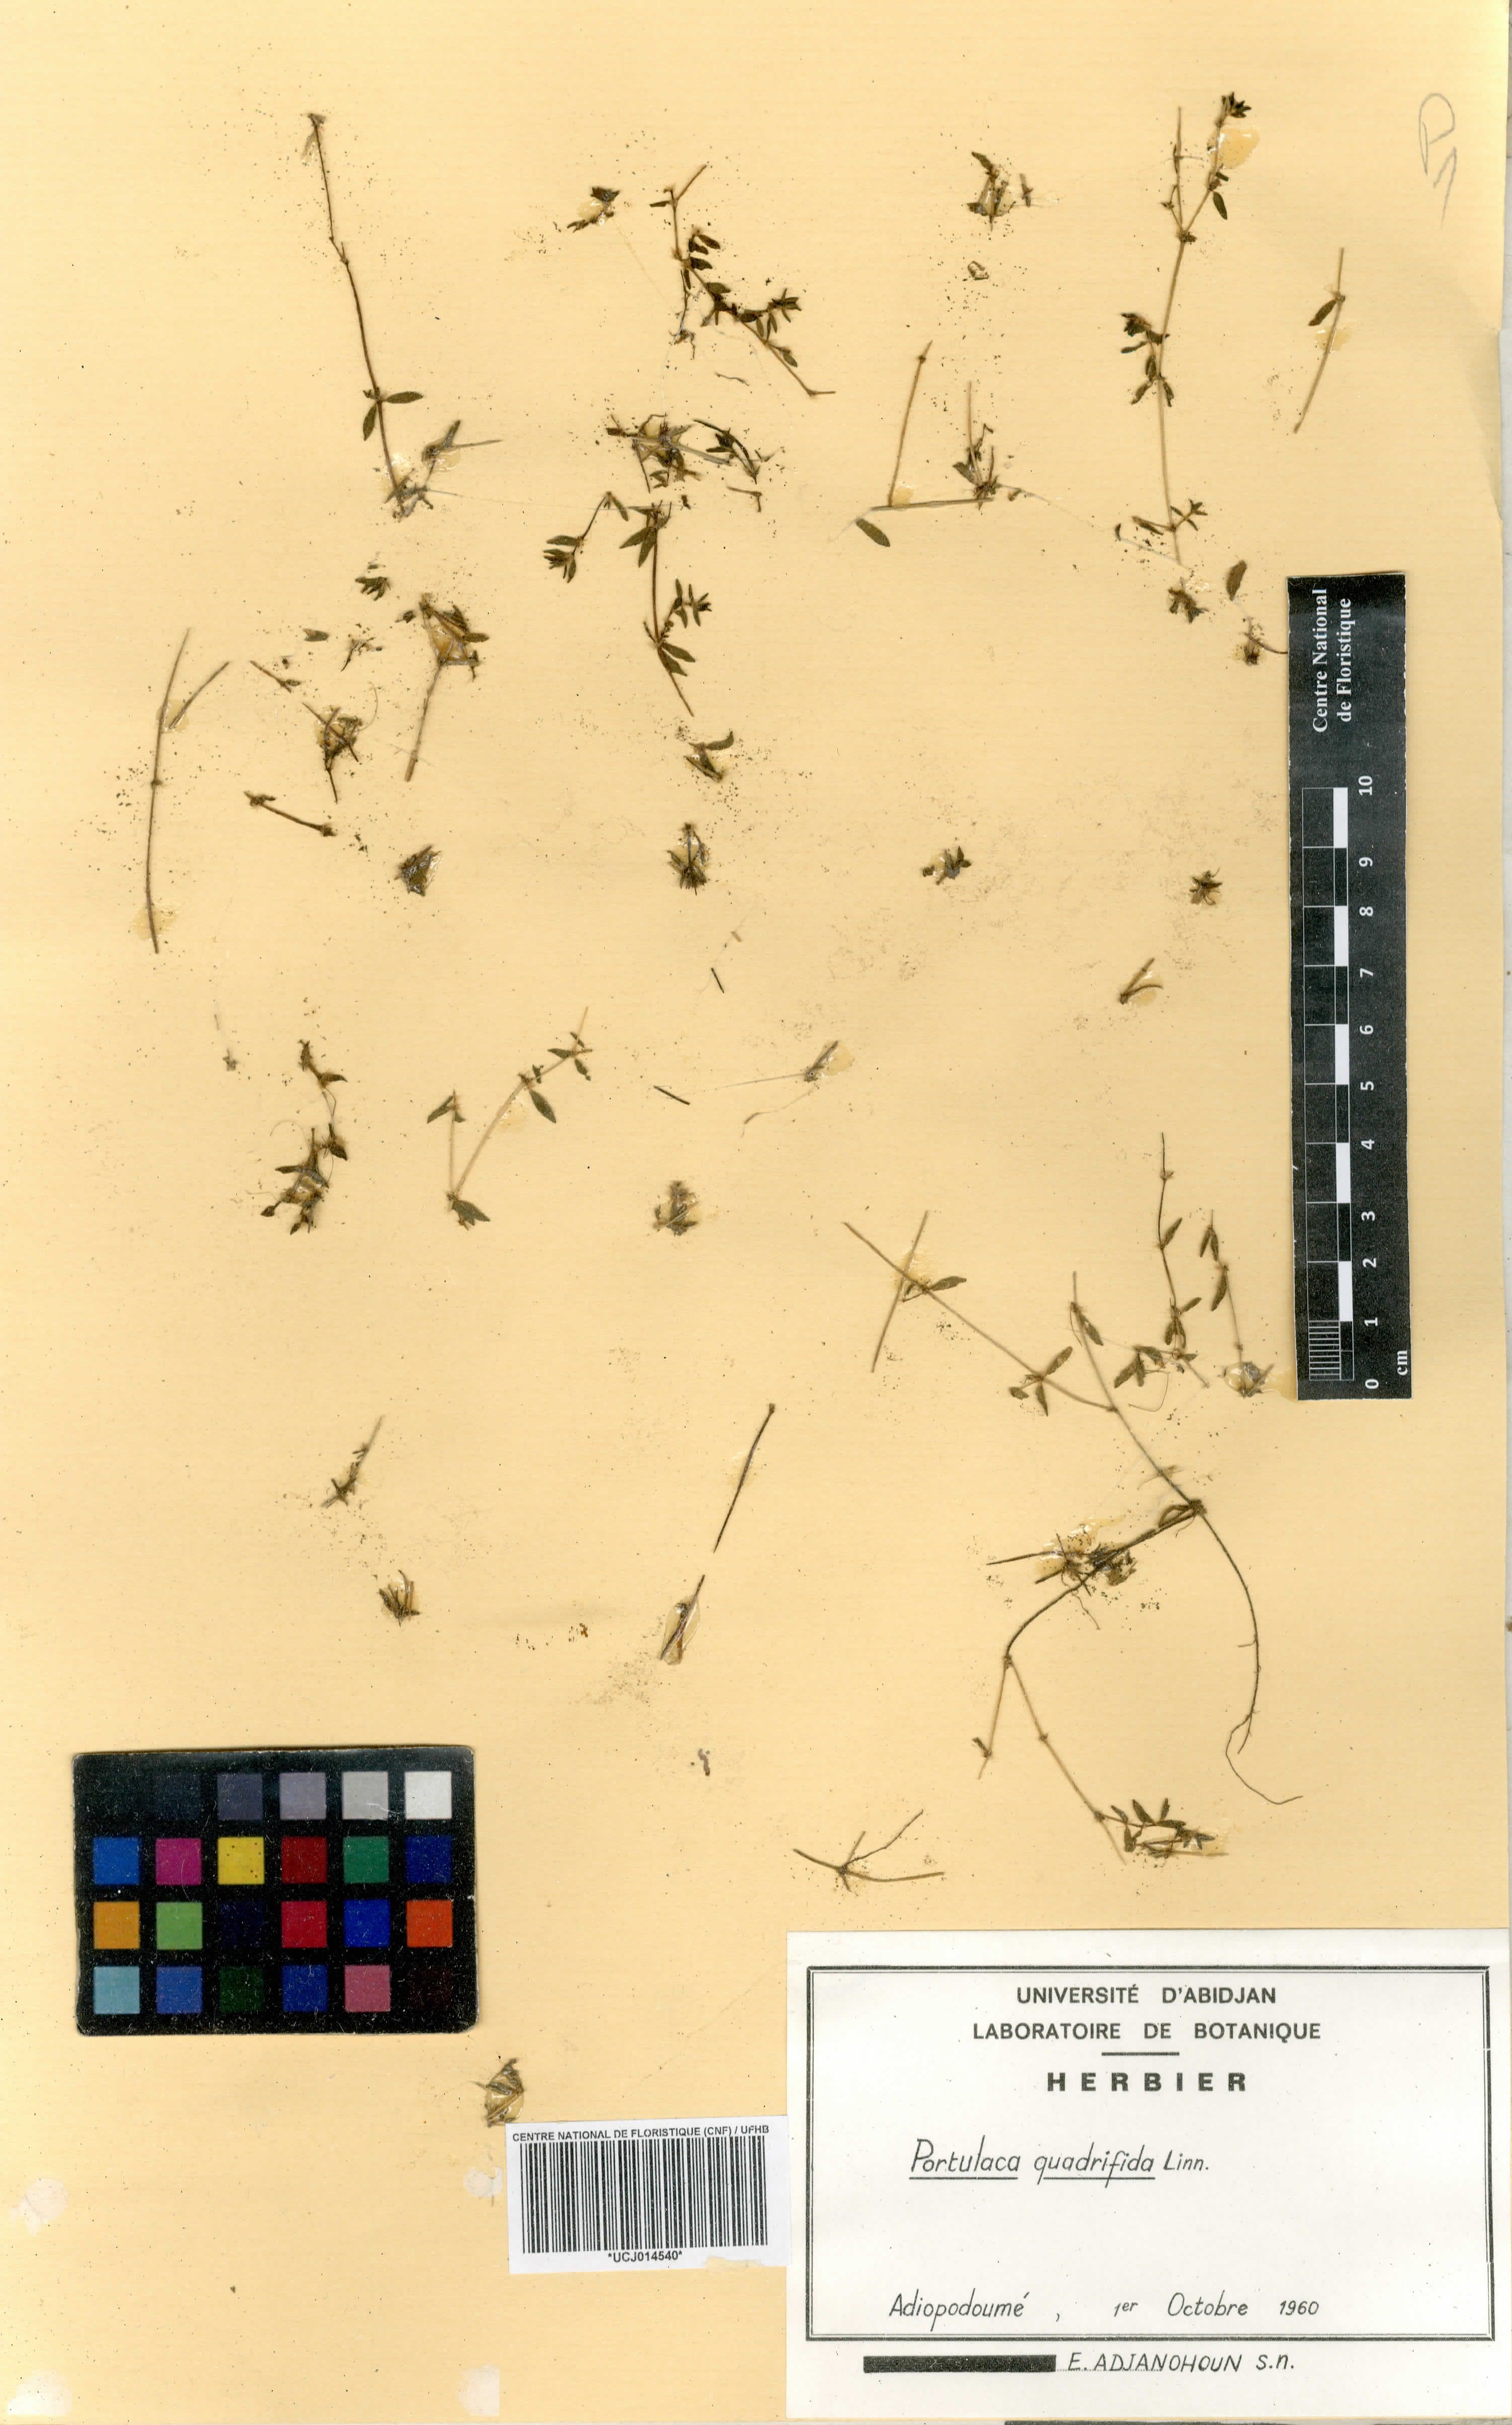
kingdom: Plantae
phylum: Tracheophyta
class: Magnoliopsida
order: Caryophyllales
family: Portulacaceae
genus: Portulaca
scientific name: Portulaca quadrifida
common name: Chickenweed
